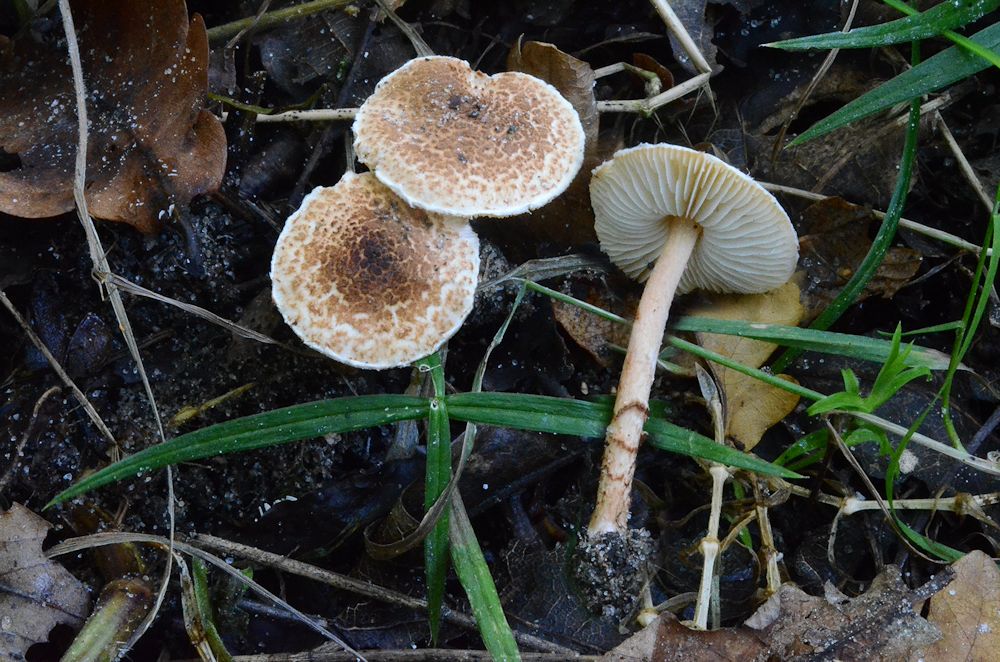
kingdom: Fungi
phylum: Basidiomycota
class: Agaricomycetes
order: Agaricales
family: Agaricaceae
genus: Lepiota
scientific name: Lepiota castanea
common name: kastaniebrun parasolhat
